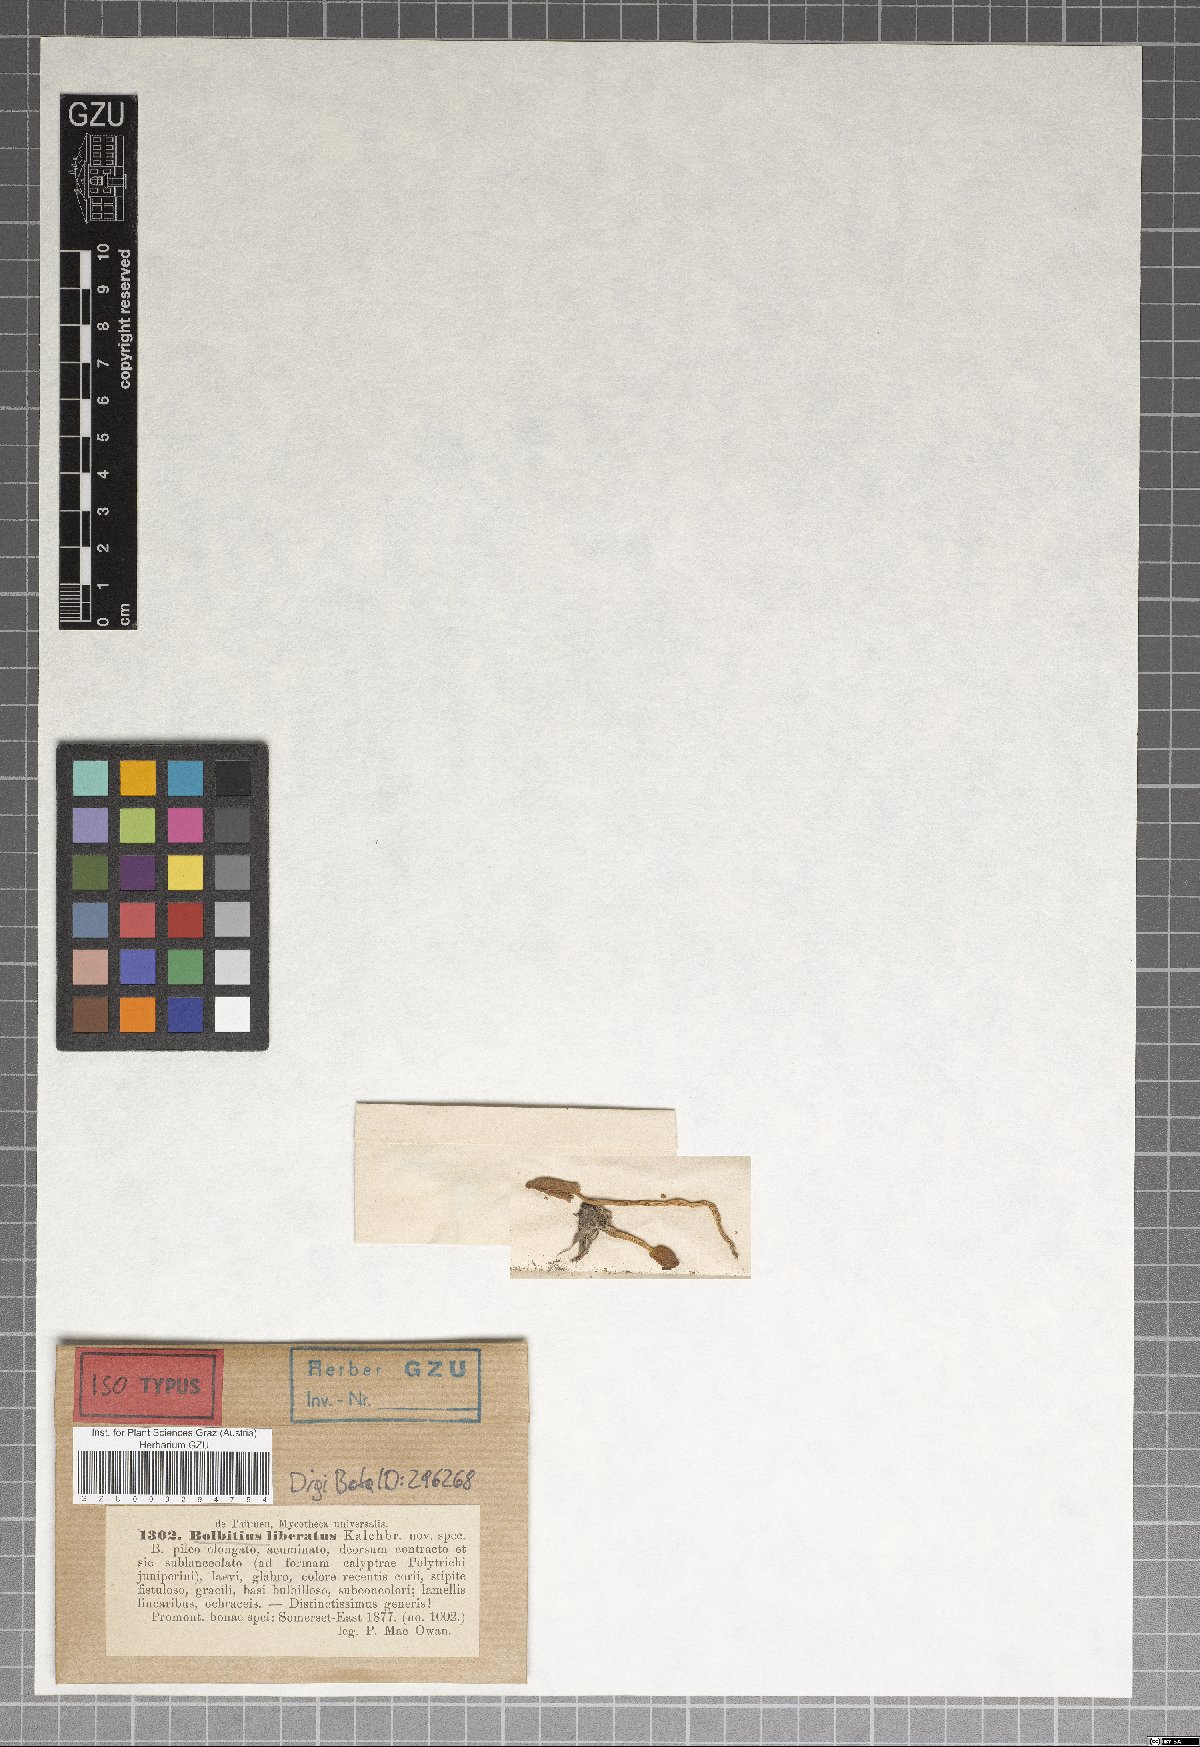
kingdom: Fungi
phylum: Basidiomycota
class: Agaricomycetes
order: Agaricales
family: Strophariaceae
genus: Agrocybe
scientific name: Agrocybe liberata
